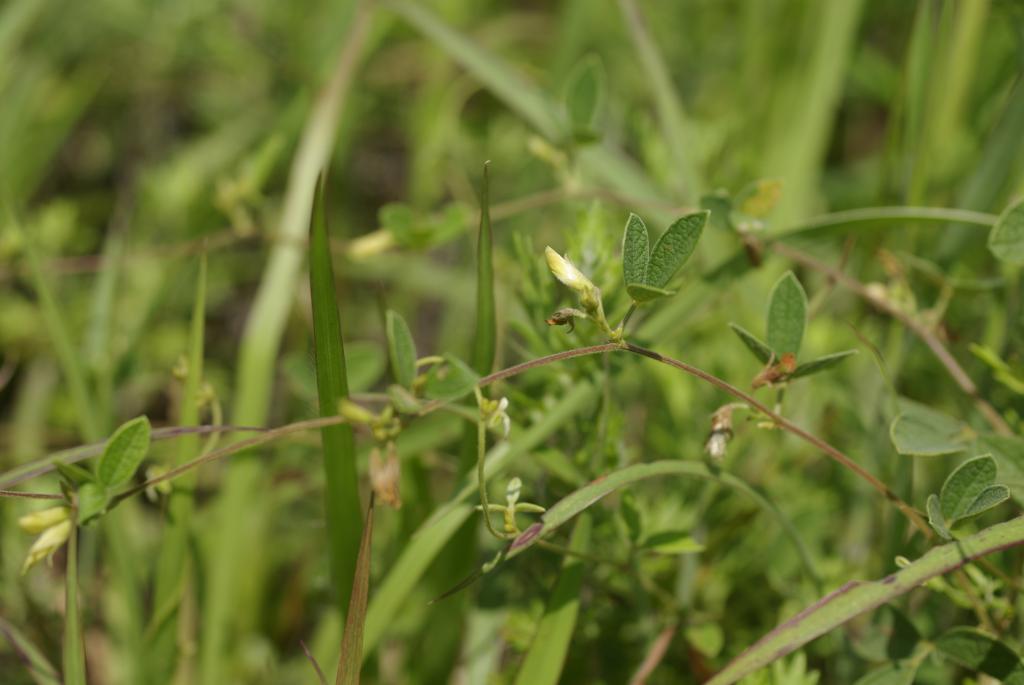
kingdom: Plantae
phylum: Tracheophyta
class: Magnoliopsida
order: Fabales
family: Fabaceae
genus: Cajanus
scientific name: Cajanus scarabaeoides
